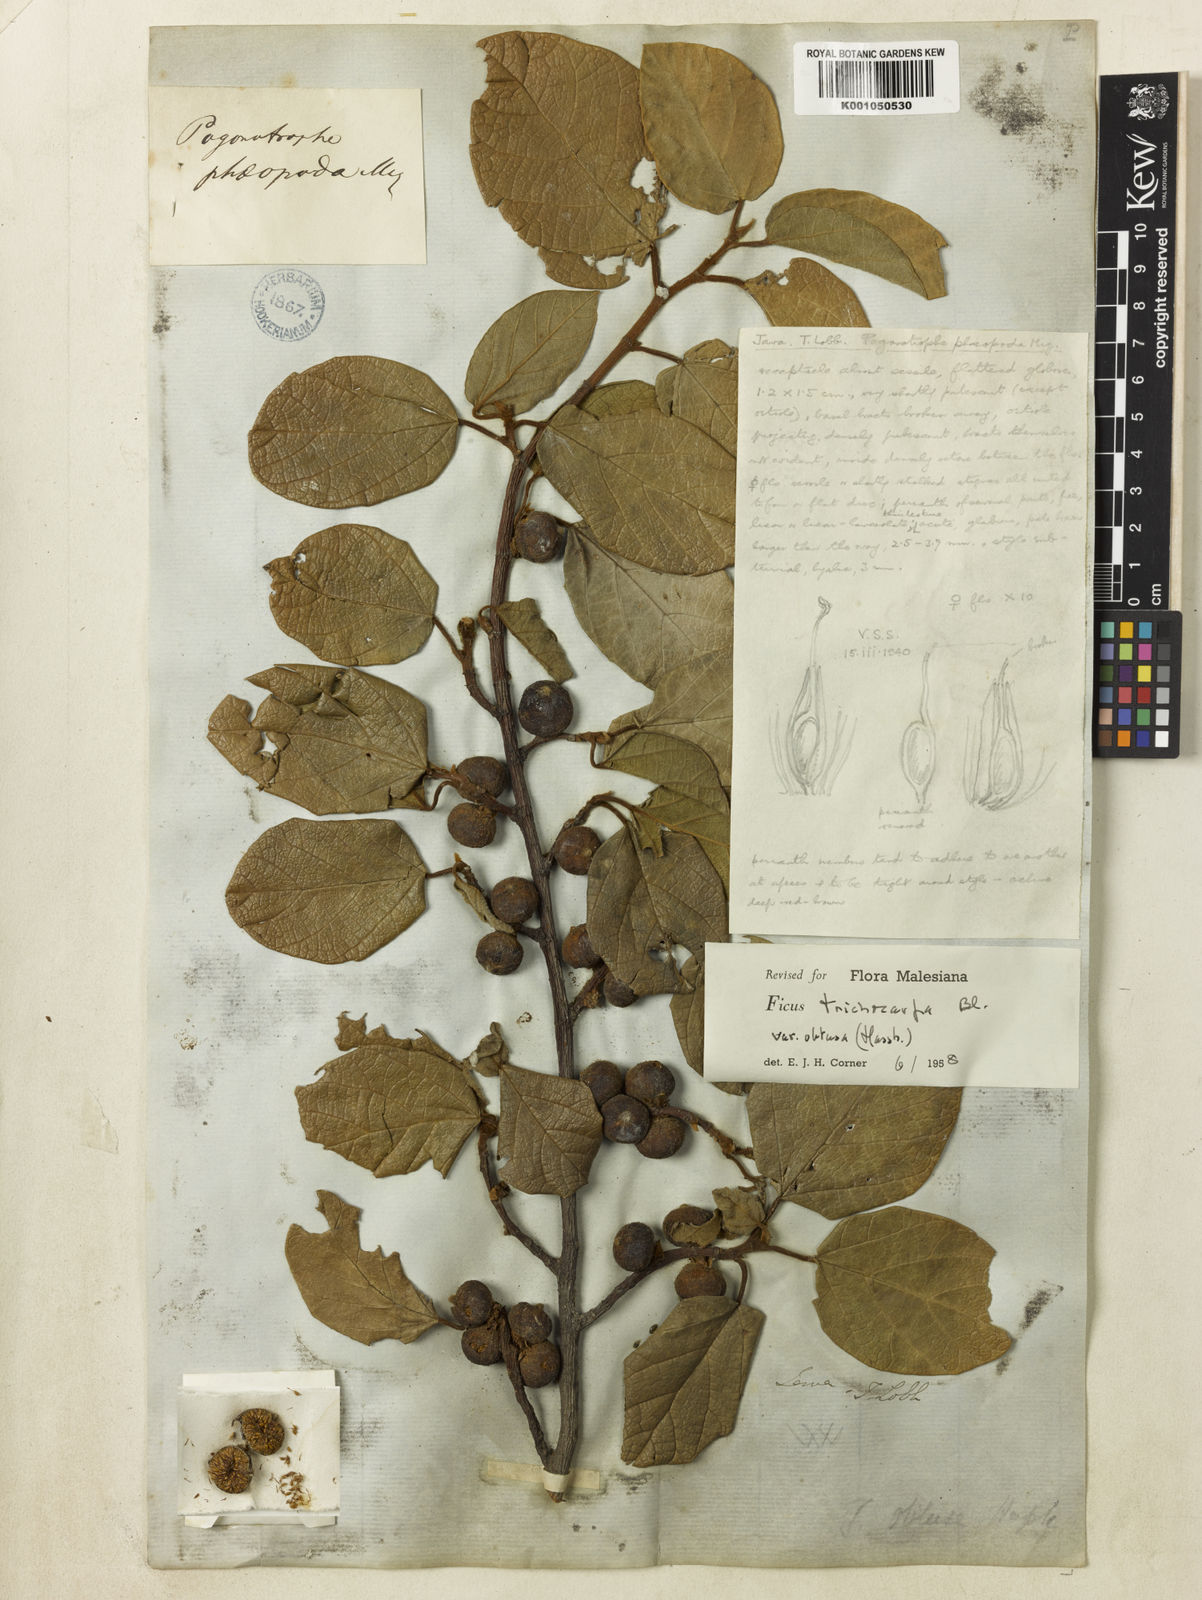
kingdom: Plantae
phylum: Tracheophyta
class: Magnoliopsida
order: Rosales
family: Moraceae
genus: Ficus
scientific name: Ficus trichocarpa
